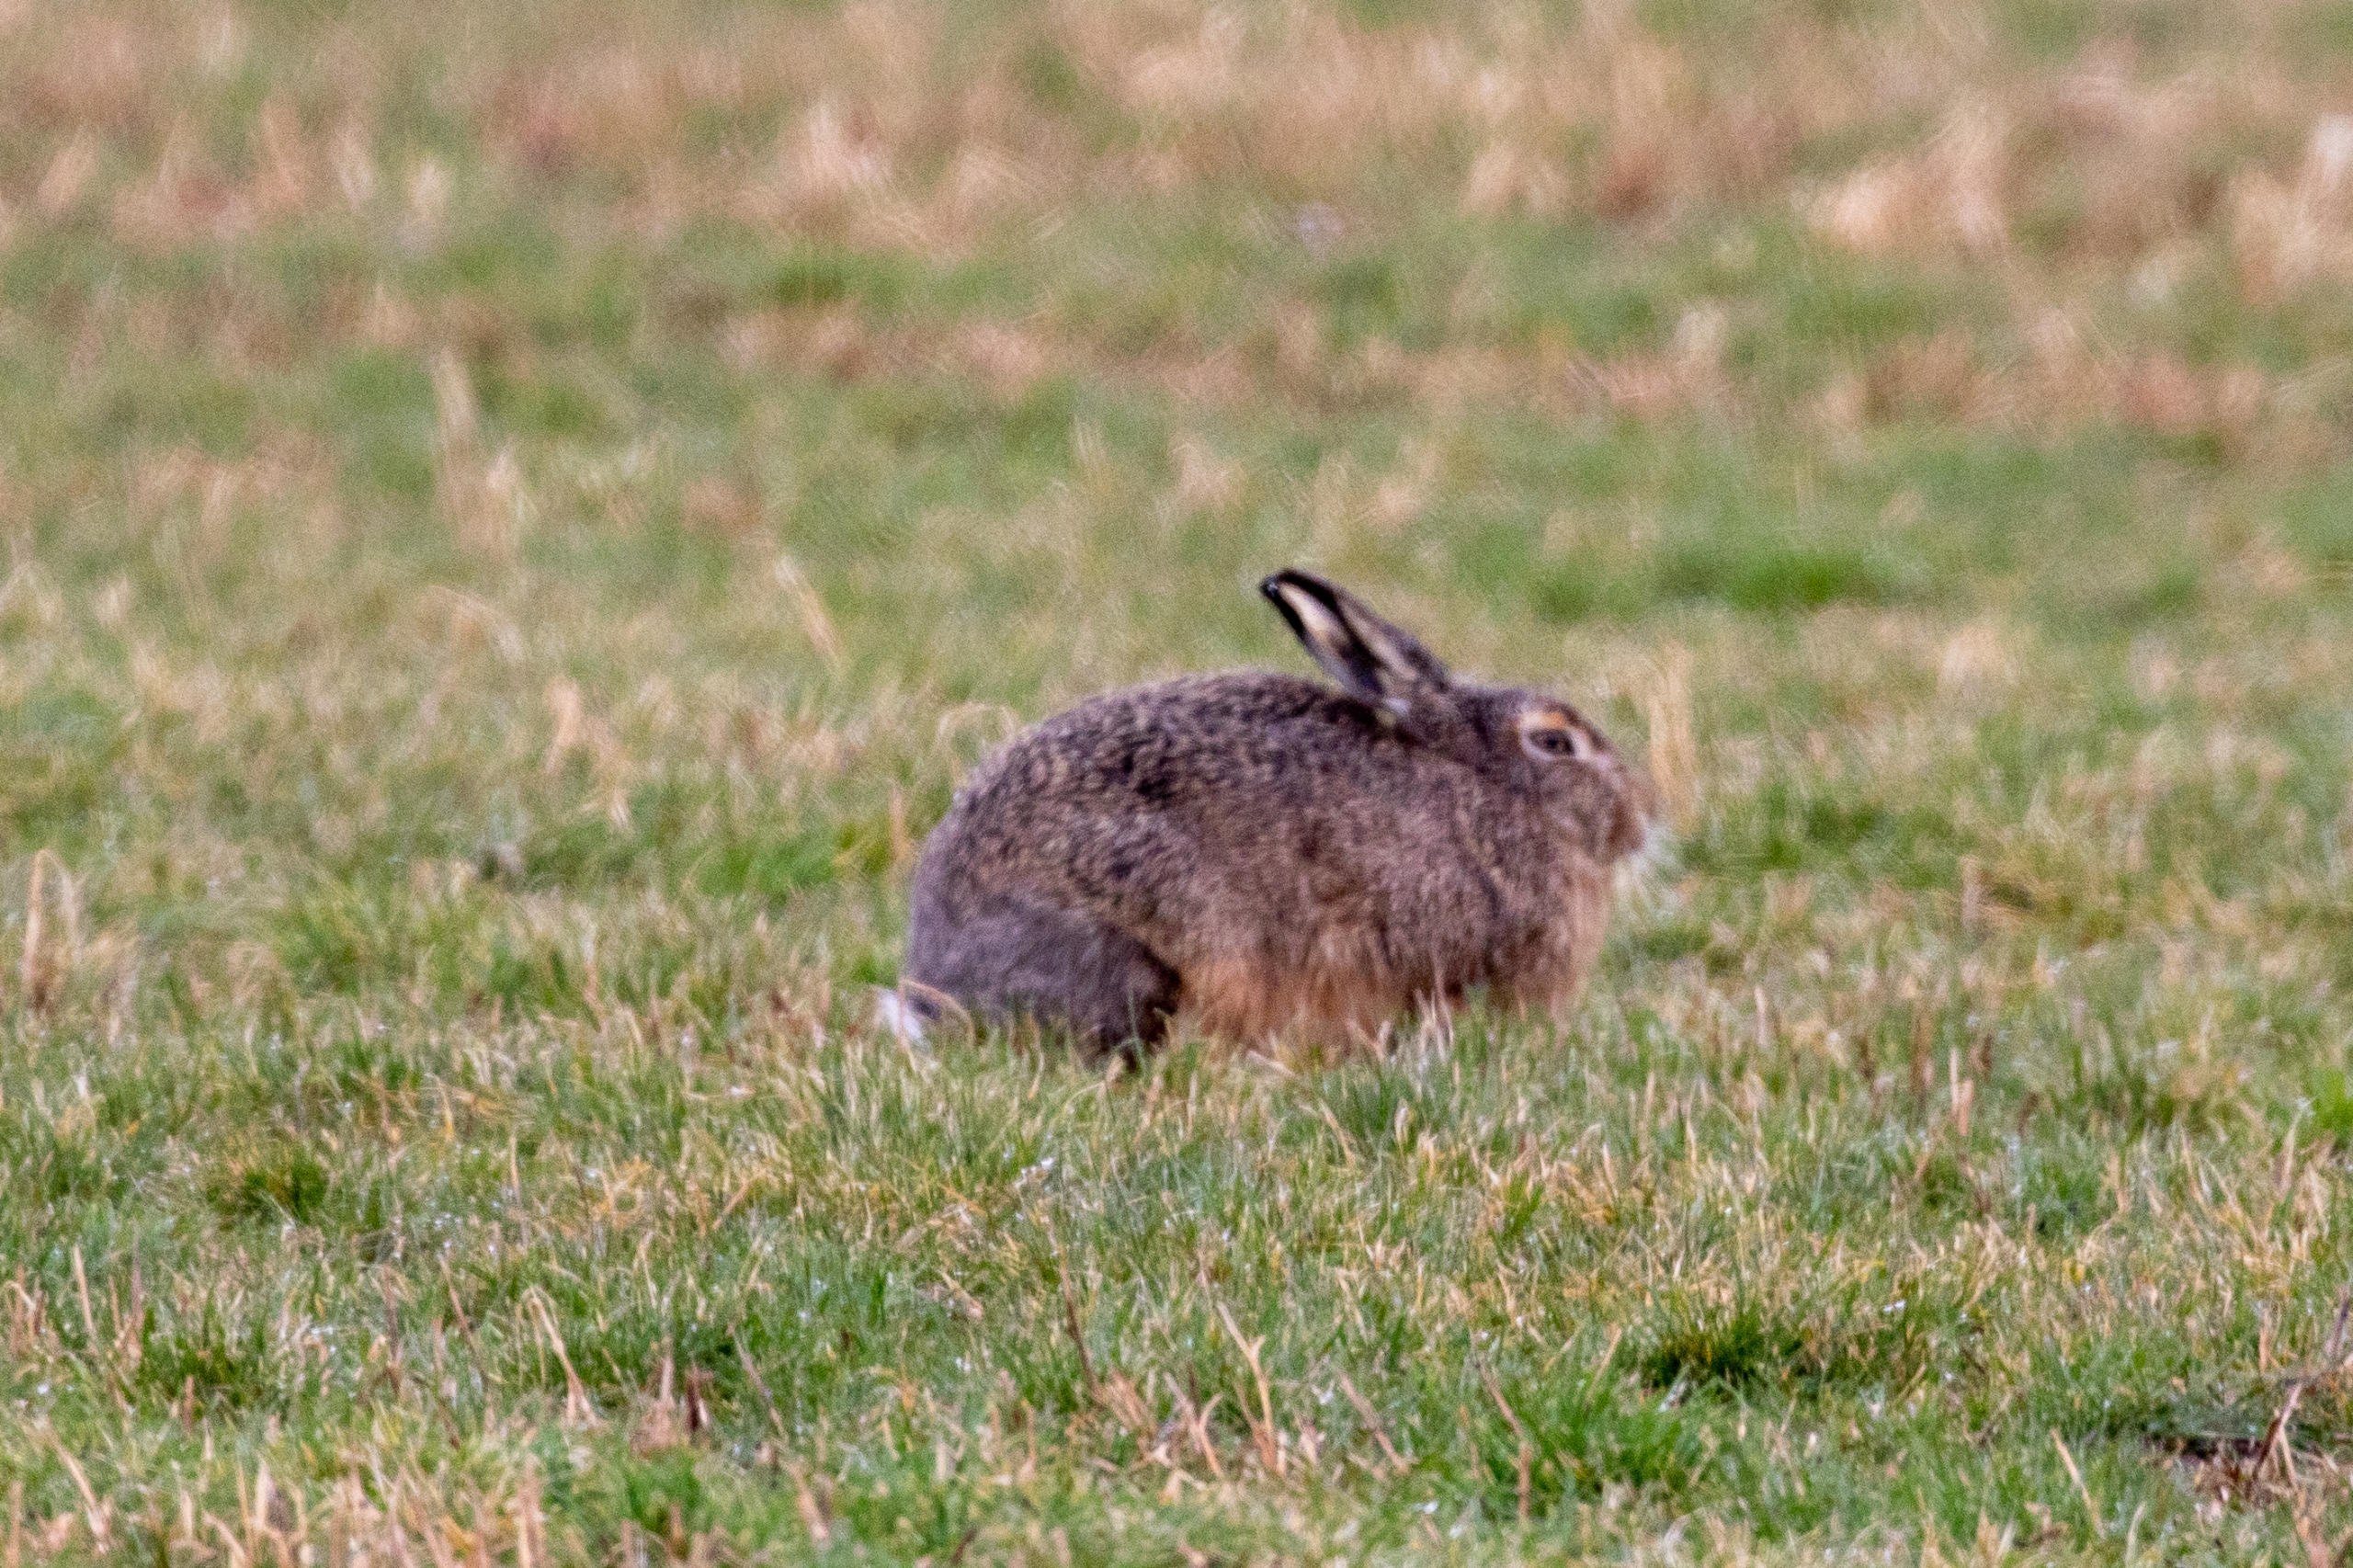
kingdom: Animalia
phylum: Chordata
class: Mammalia
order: Lagomorpha
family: Leporidae
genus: Lepus
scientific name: Lepus europaeus
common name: Hare
